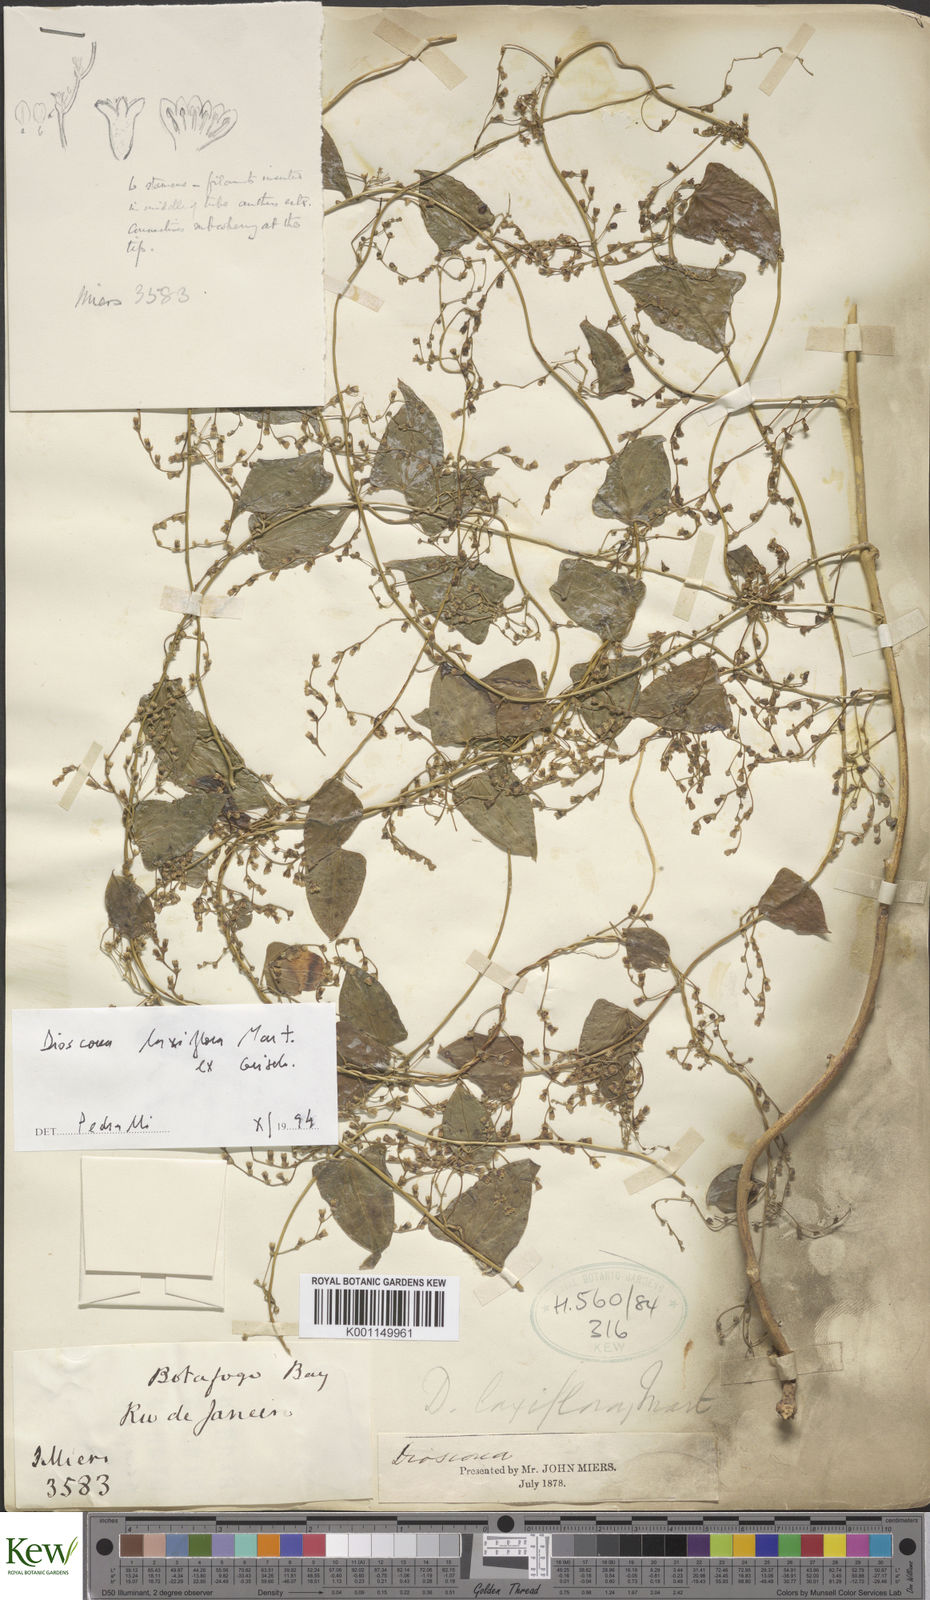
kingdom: Plantae
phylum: Tracheophyta
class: Liliopsida
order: Dioscoreales
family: Dioscoreaceae
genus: Dioscorea
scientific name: Dioscorea laxiflora
